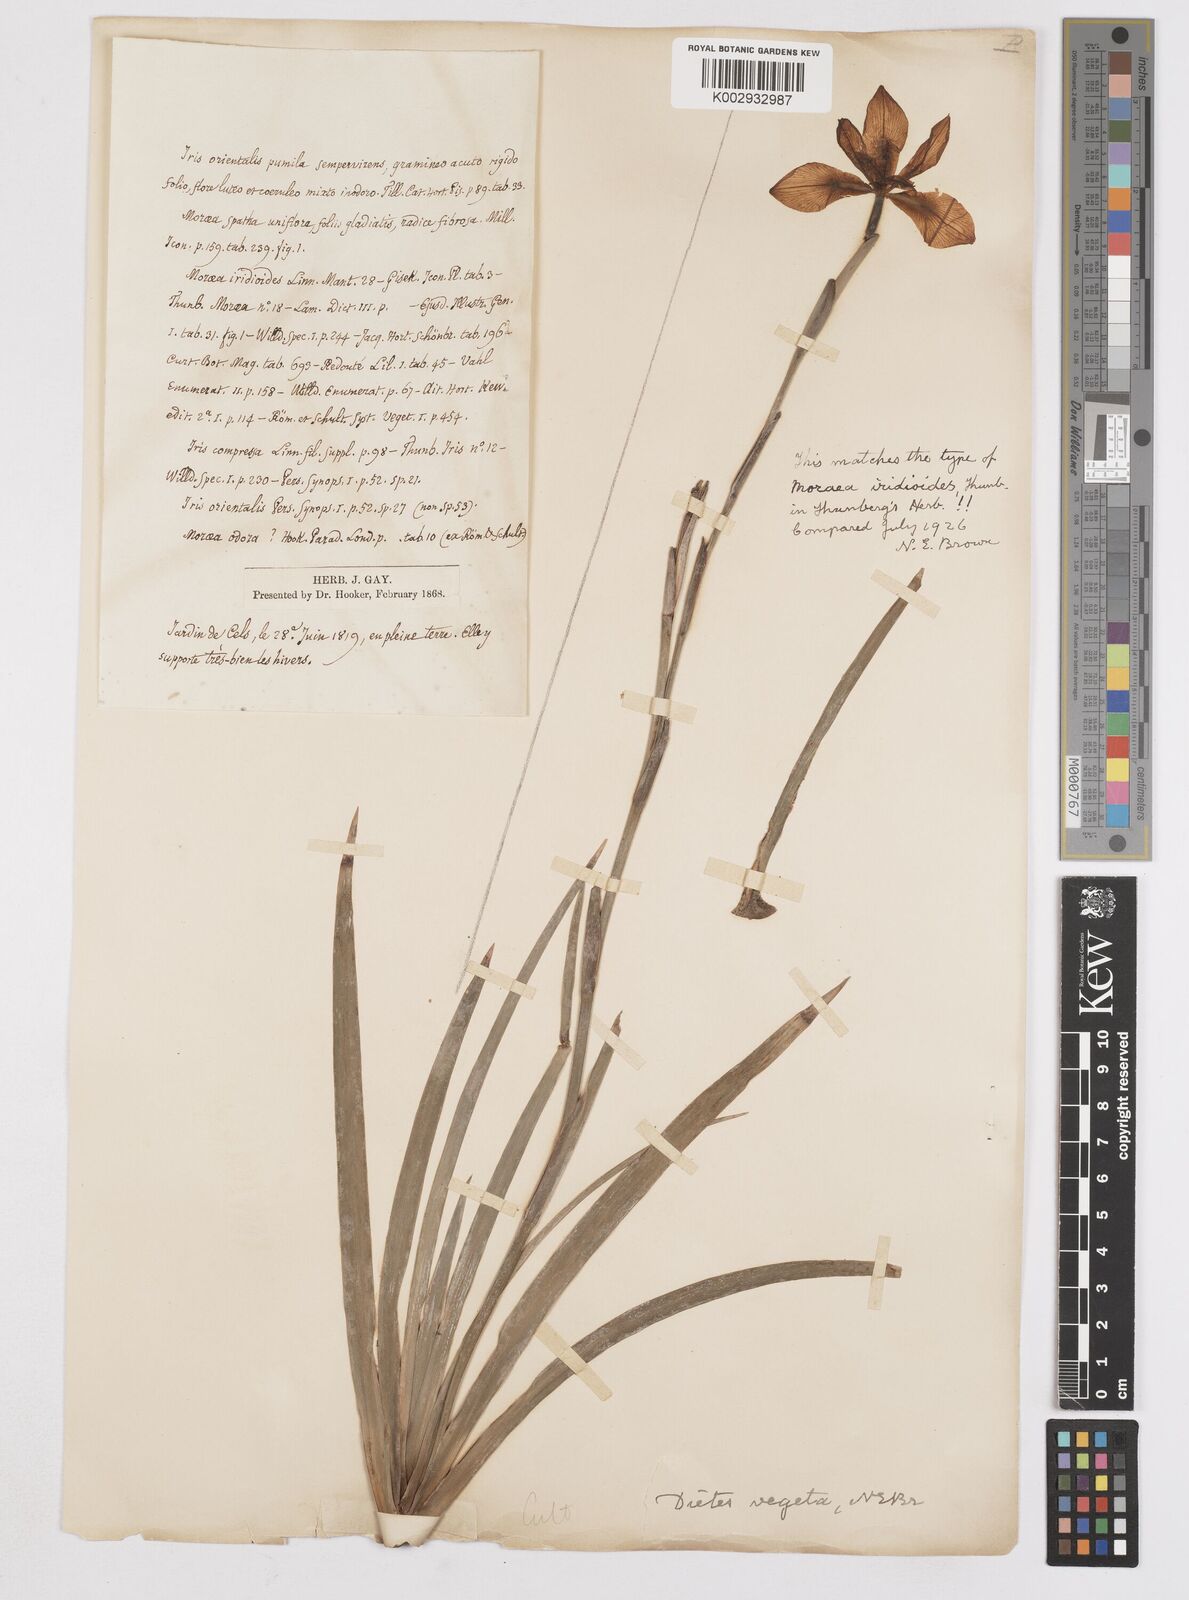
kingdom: Plantae
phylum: Tracheophyta
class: Liliopsida
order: Asparagales
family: Iridaceae
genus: Dietes
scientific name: Dietes iridioides
